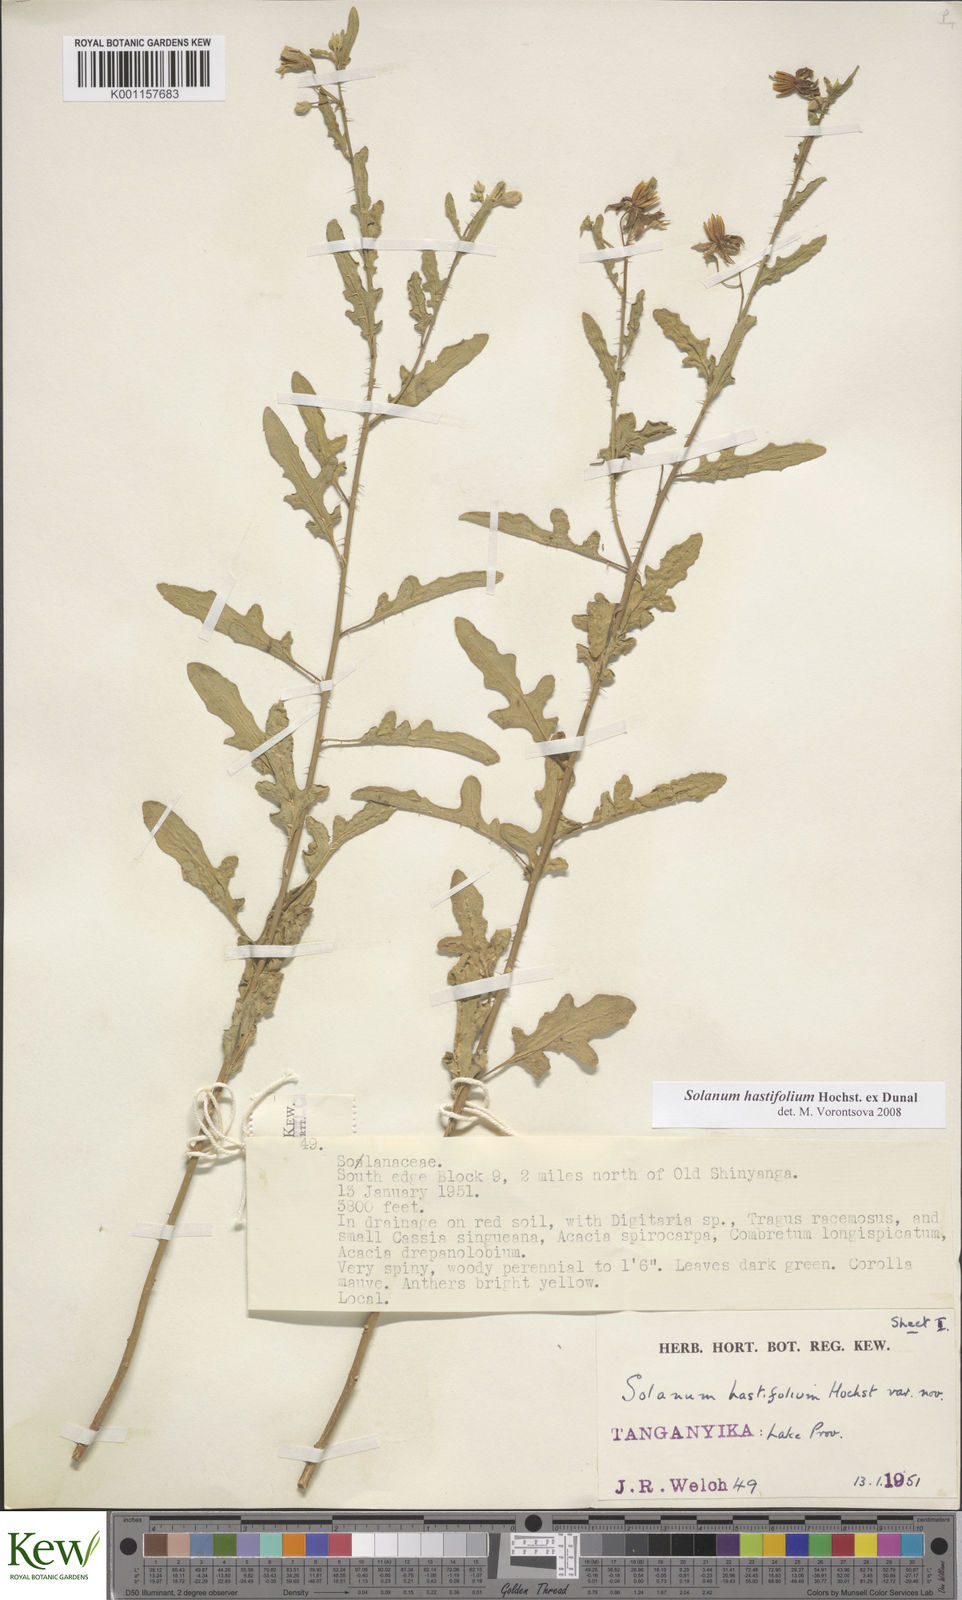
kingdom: Plantae
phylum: Tracheophyta
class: Magnoliopsida
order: Solanales
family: Solanaceae
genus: Solanum
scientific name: Solanum hastifolium
